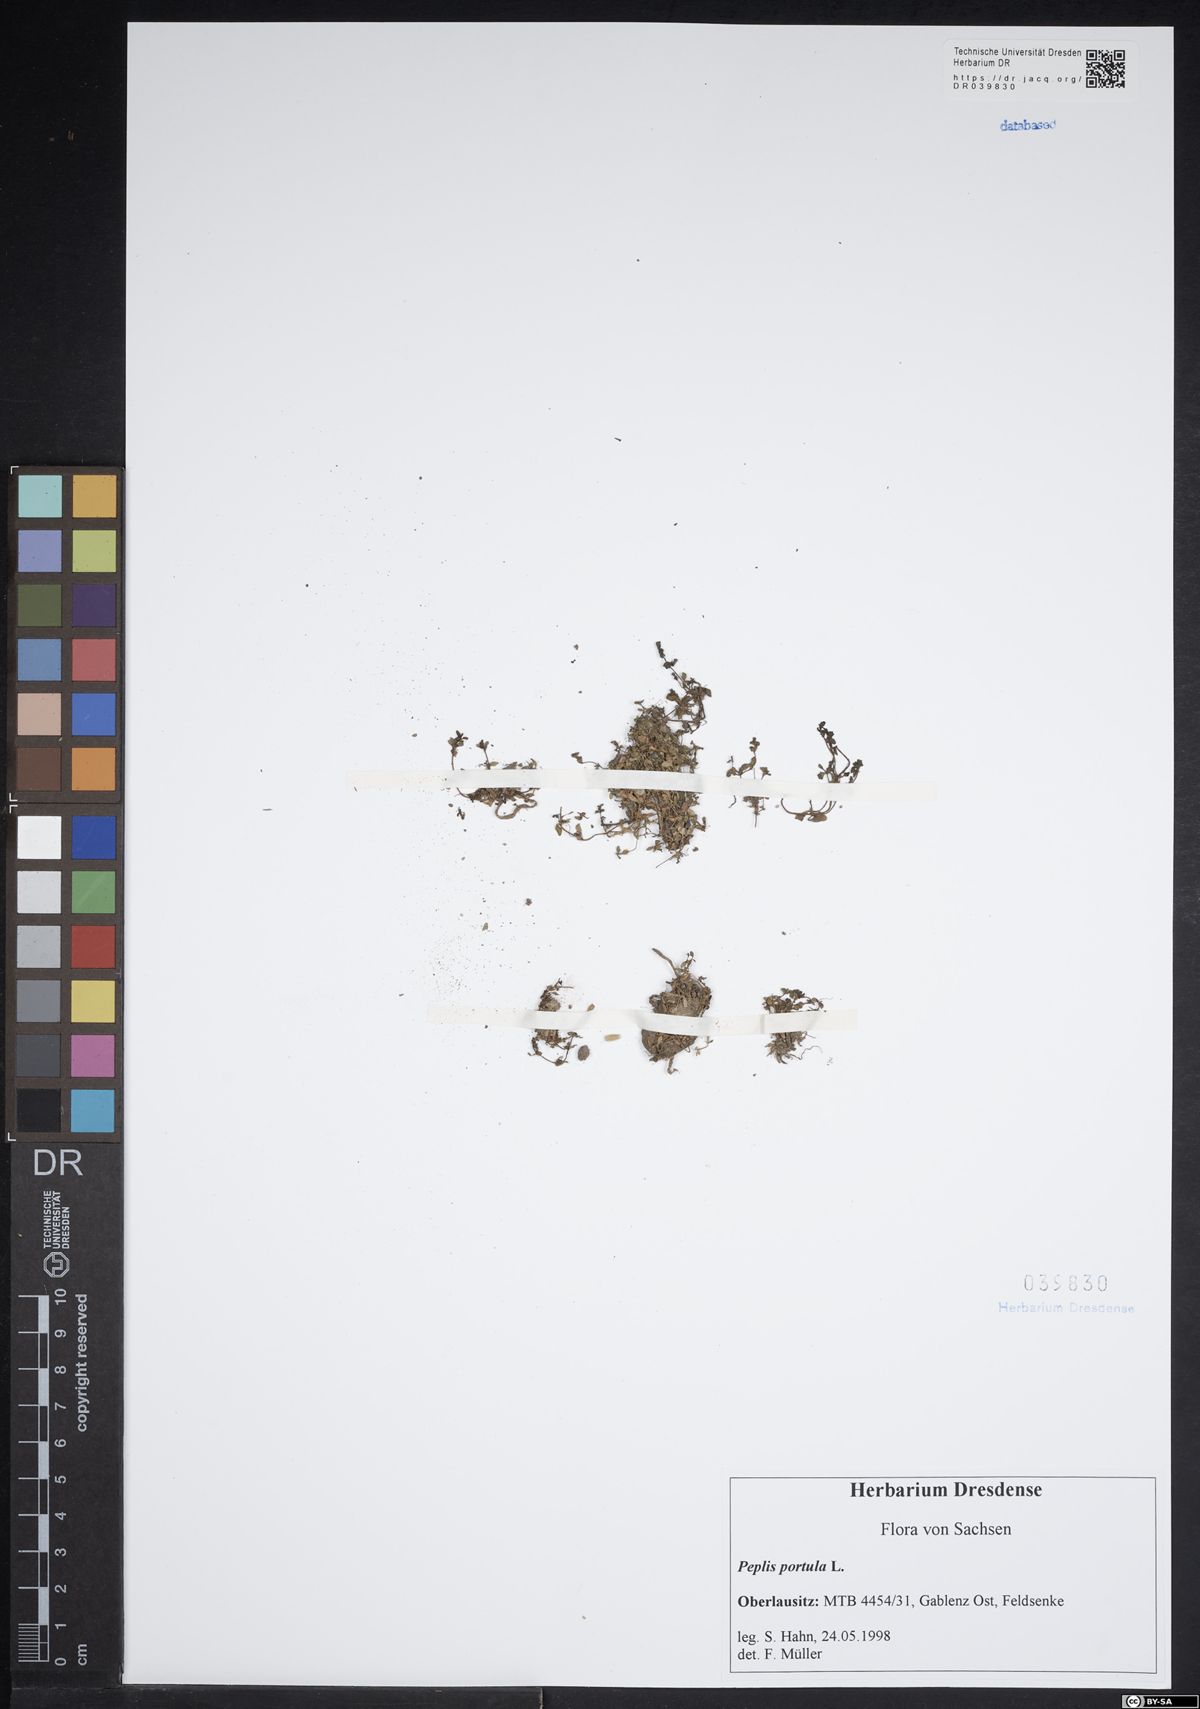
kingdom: Plantae
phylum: Tracheophyta
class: Magnoliopsida
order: Myrtales
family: Lythraceae
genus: Lythrum
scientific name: Lythrum portula
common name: Water purslane
